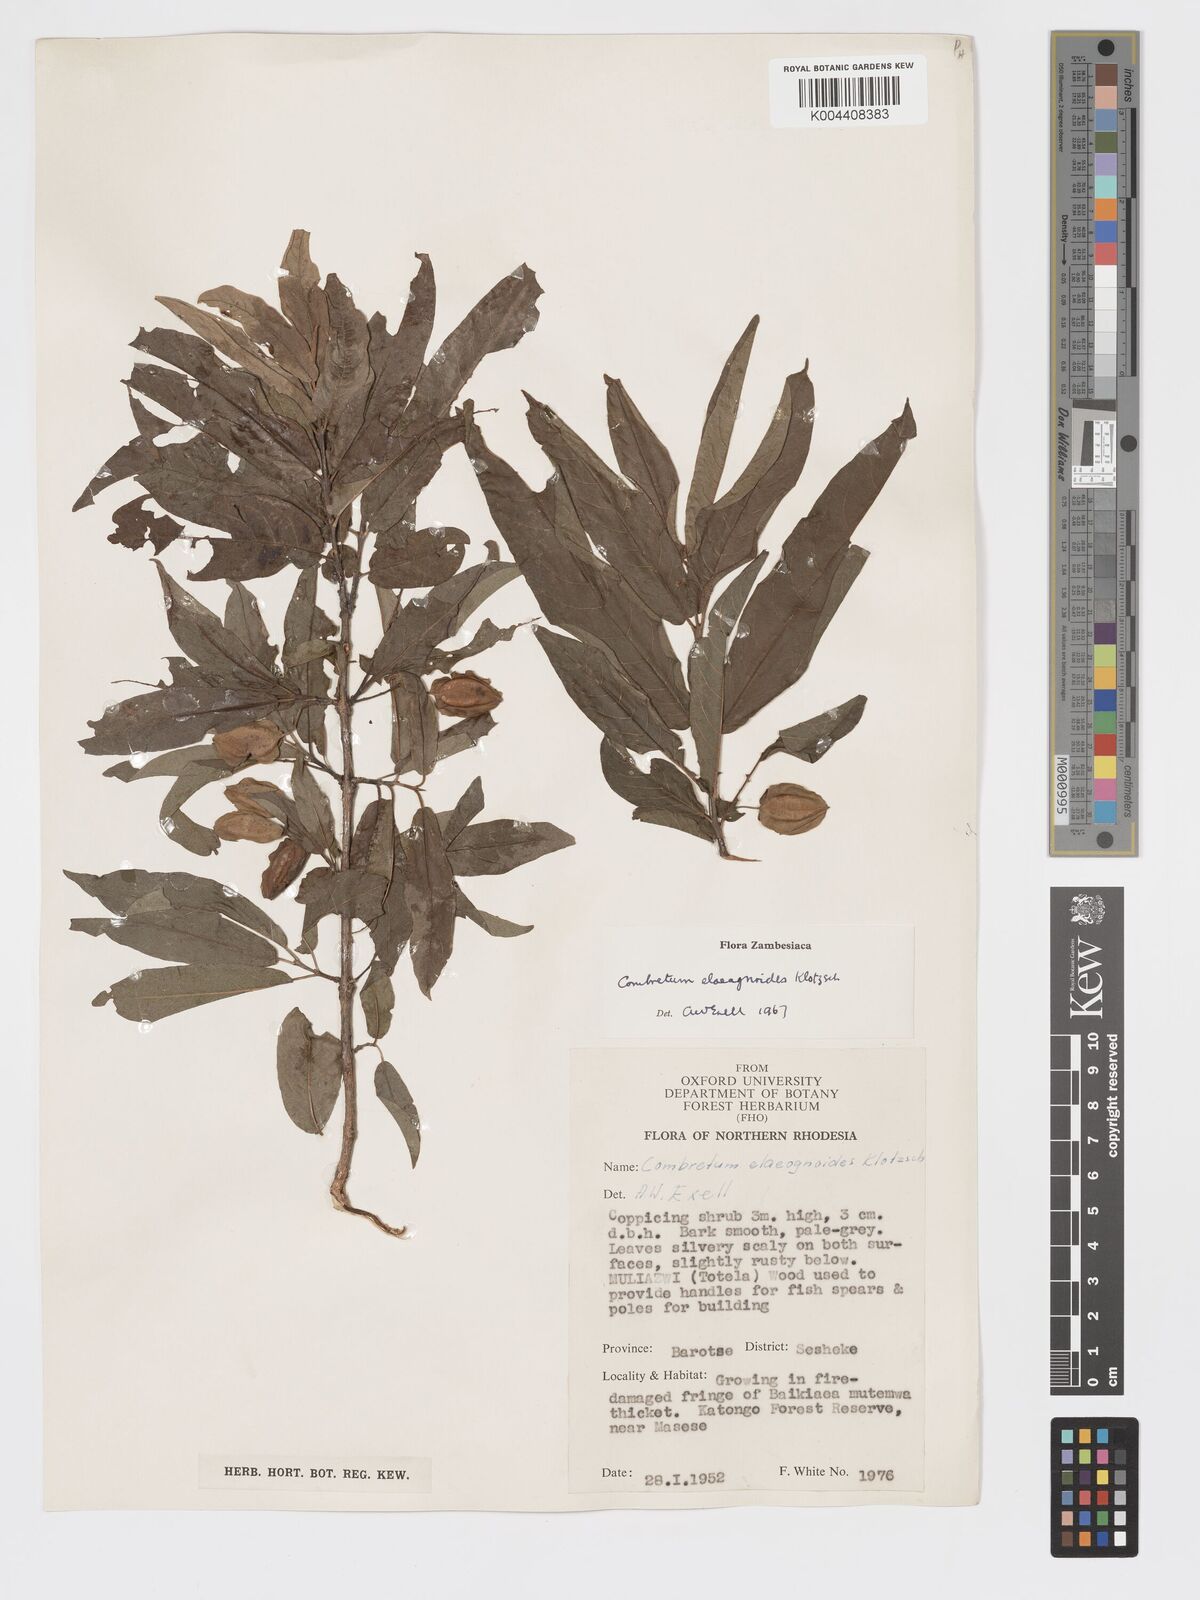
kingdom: Plantae
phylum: Tracheophyta
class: Magnoliopsida
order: Myrtales
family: Combretaceae
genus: Combretum
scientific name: Combretum elaeagnoides
